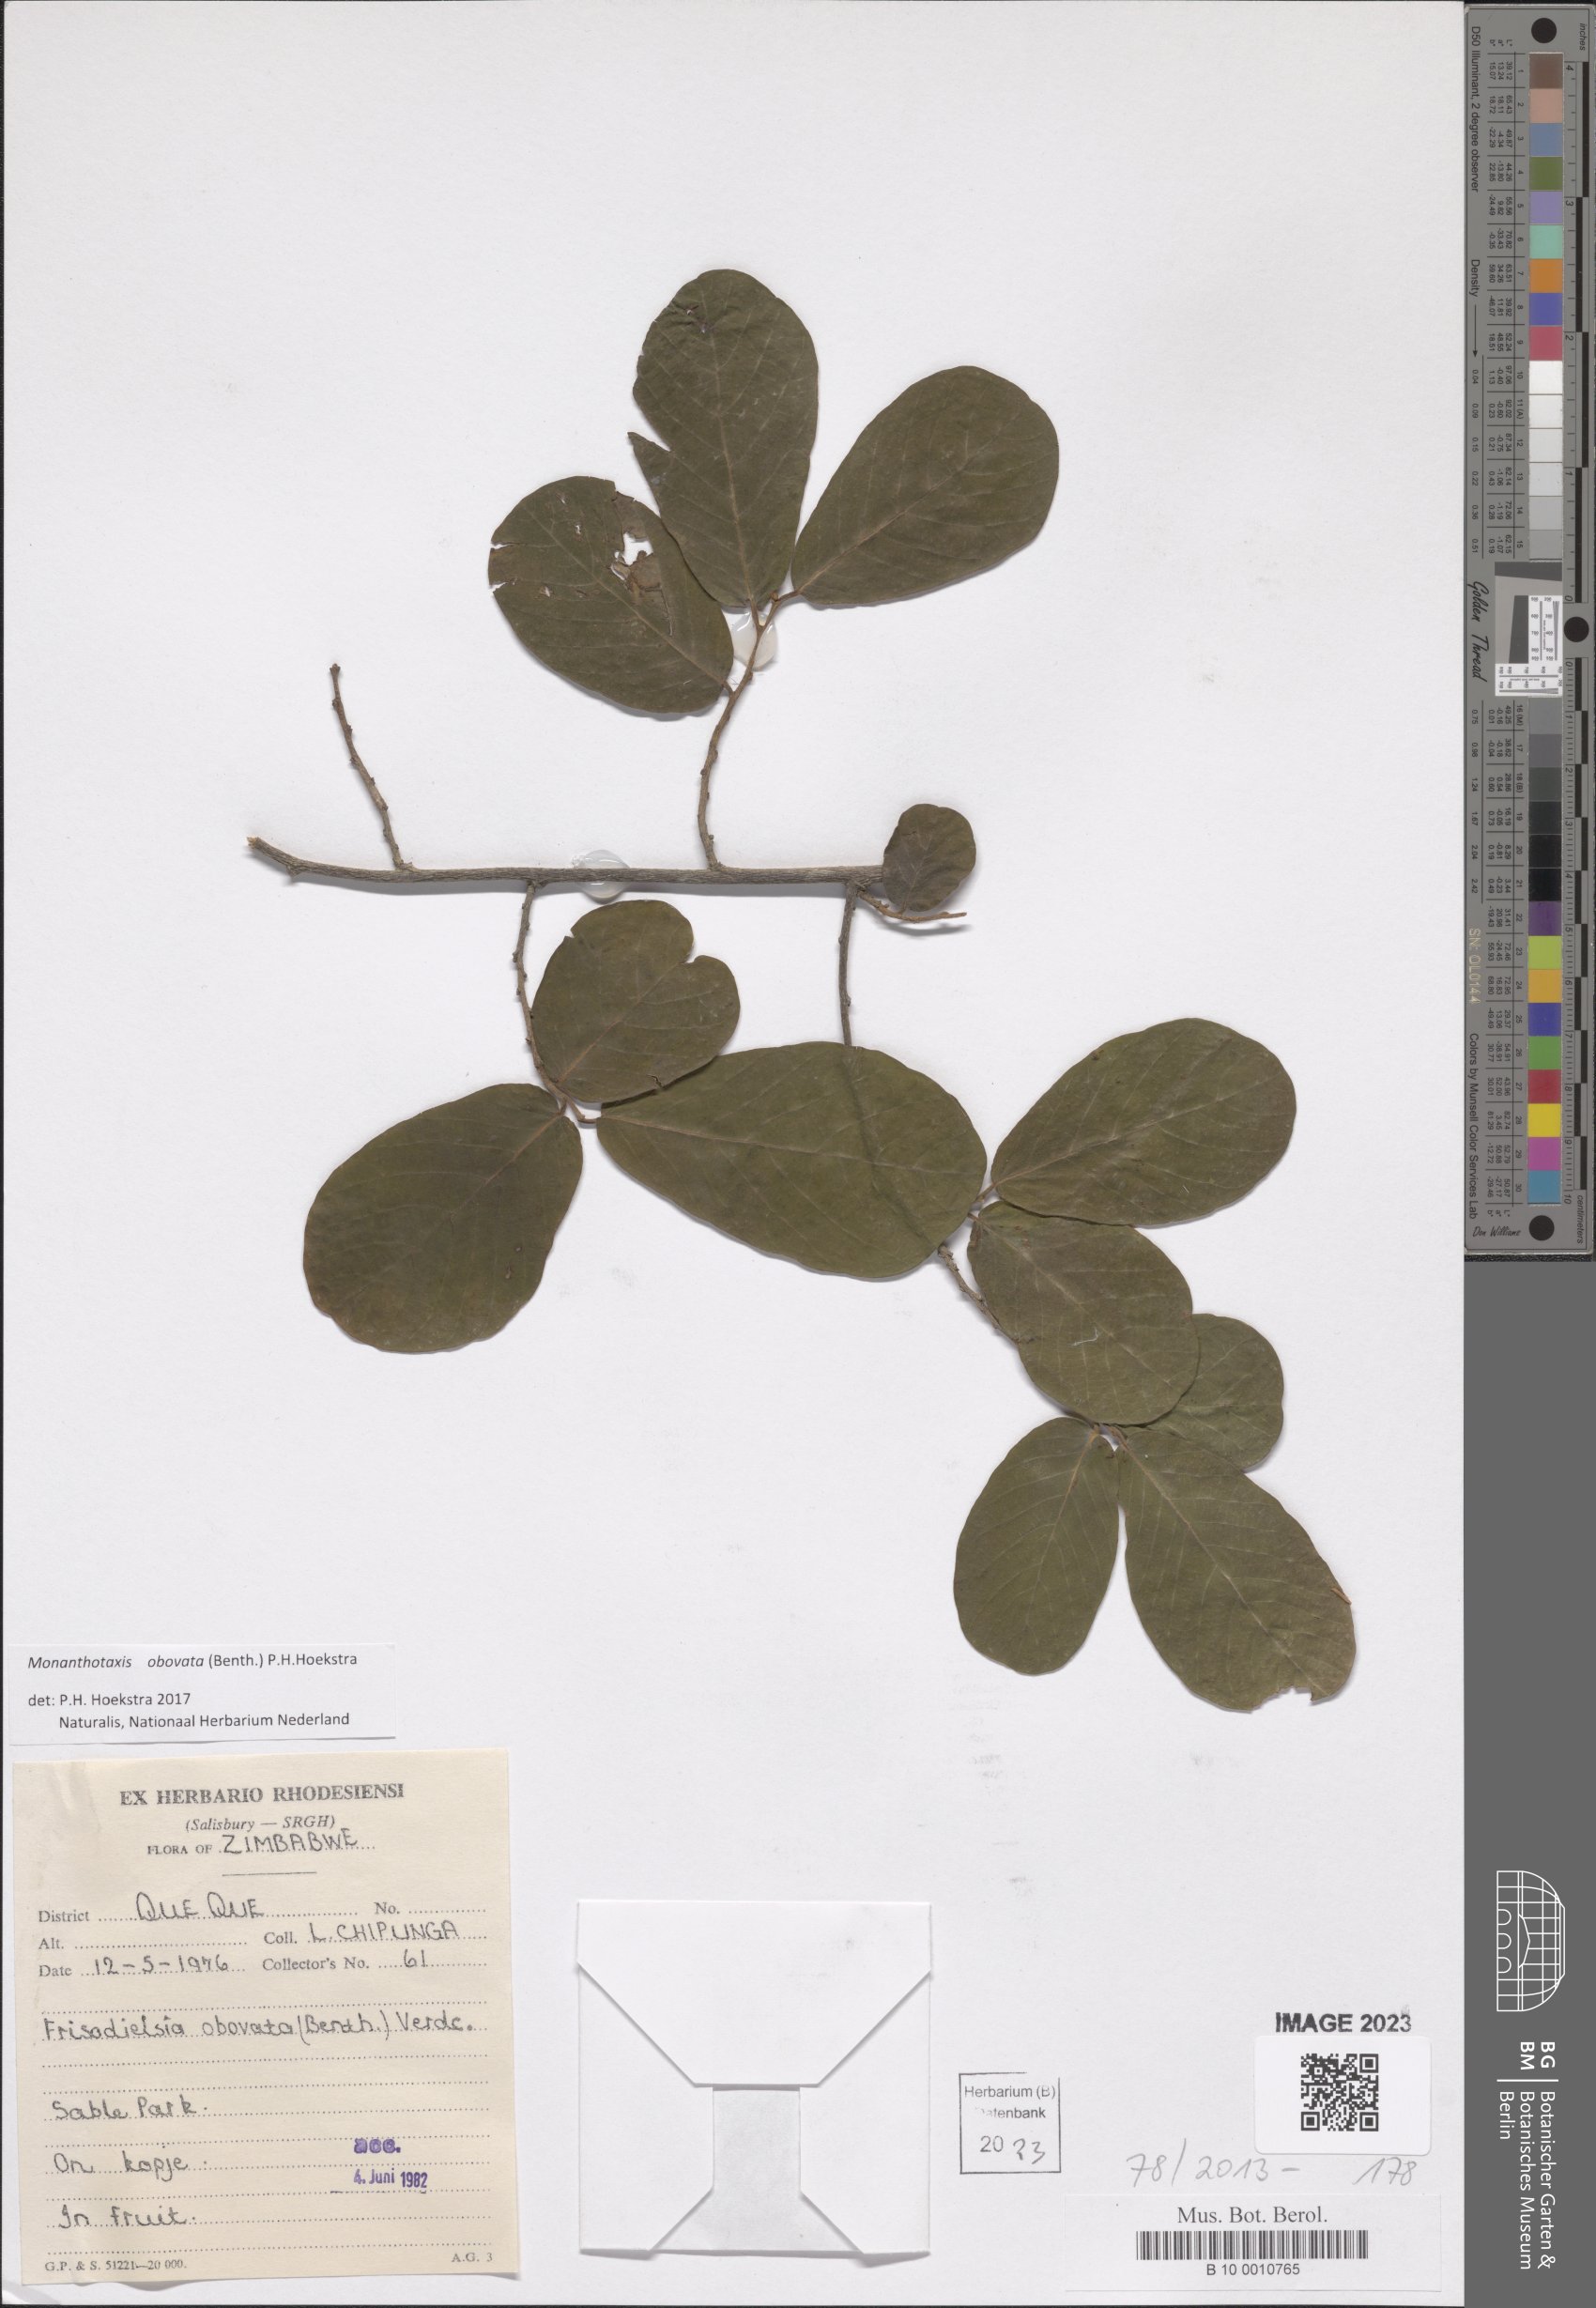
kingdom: Plantae
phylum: Tracheophyta
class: Magnoliopsida
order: Magnoliales
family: Annonaceae
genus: Friesodielsia
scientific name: Friesodielsia obovata
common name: Monkey fingers
